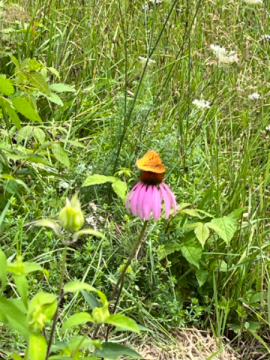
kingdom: Animalia
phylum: Arthropoda
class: Insecta
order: Lepidoptera
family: Nymphalidae
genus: Speyeria
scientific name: Speyeria cybele
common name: Great Spangled Fritillary
